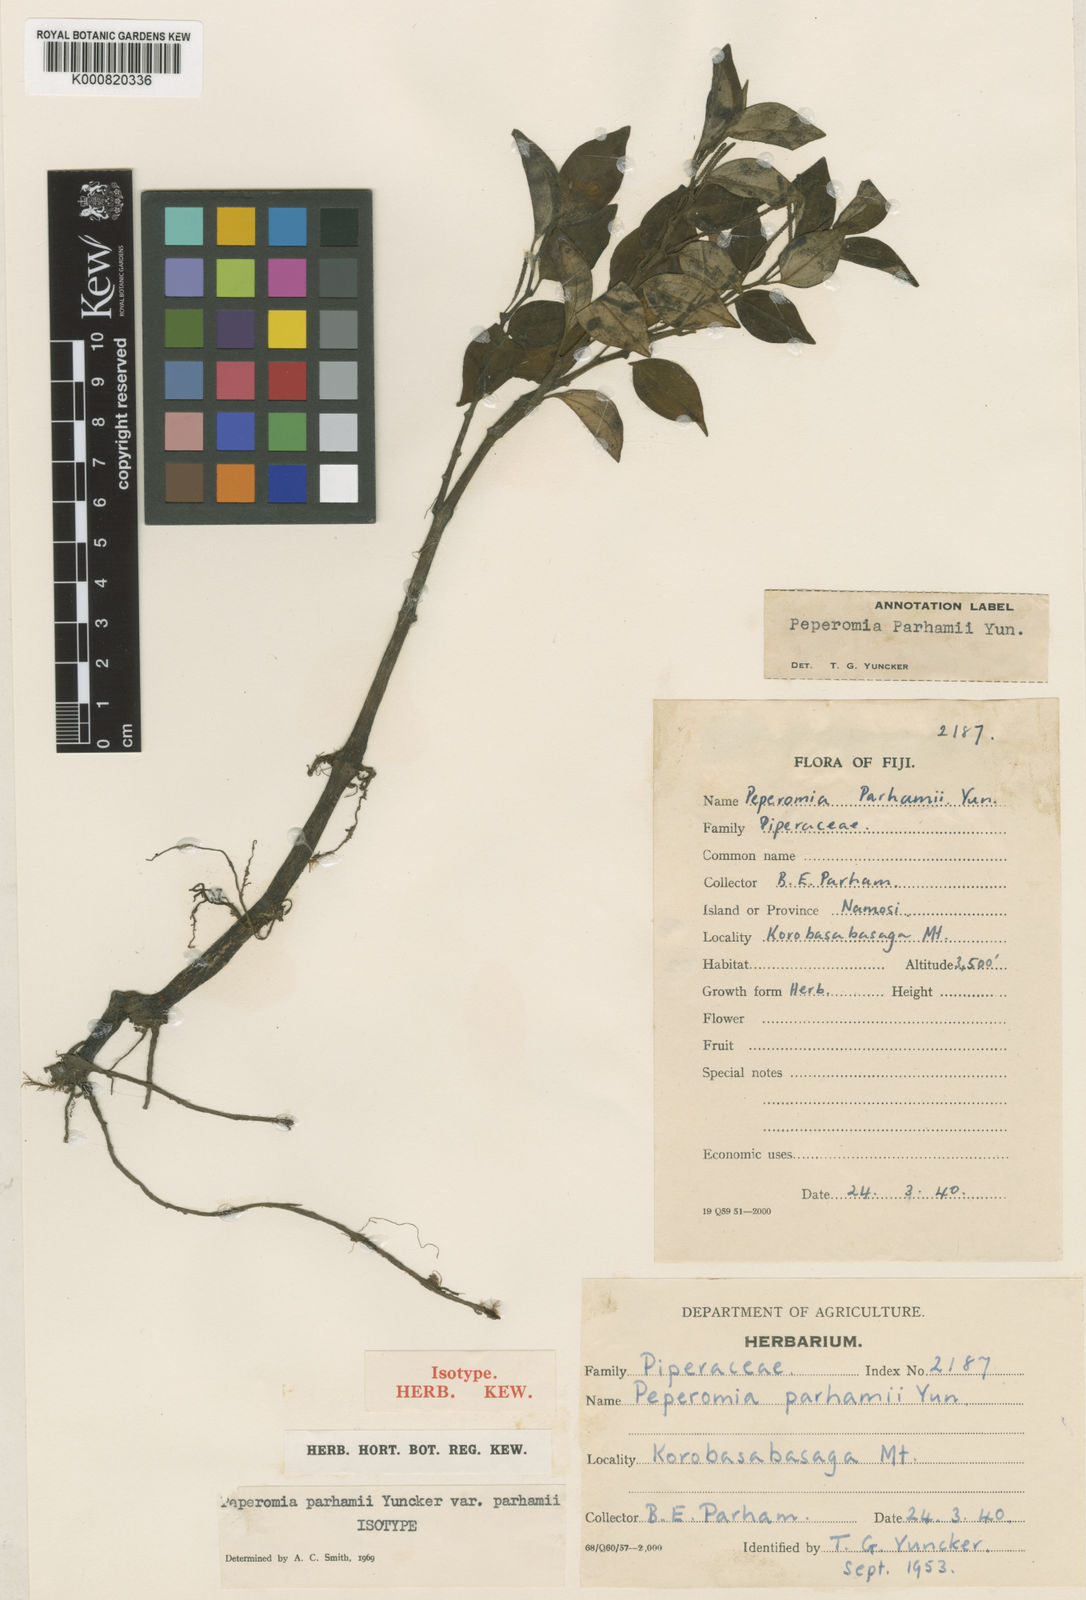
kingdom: Plantae
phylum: Tracheophyta
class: Magnoliopsida
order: Piperales
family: Piperaceae
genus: Peperomia
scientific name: Peperomia parhamii
